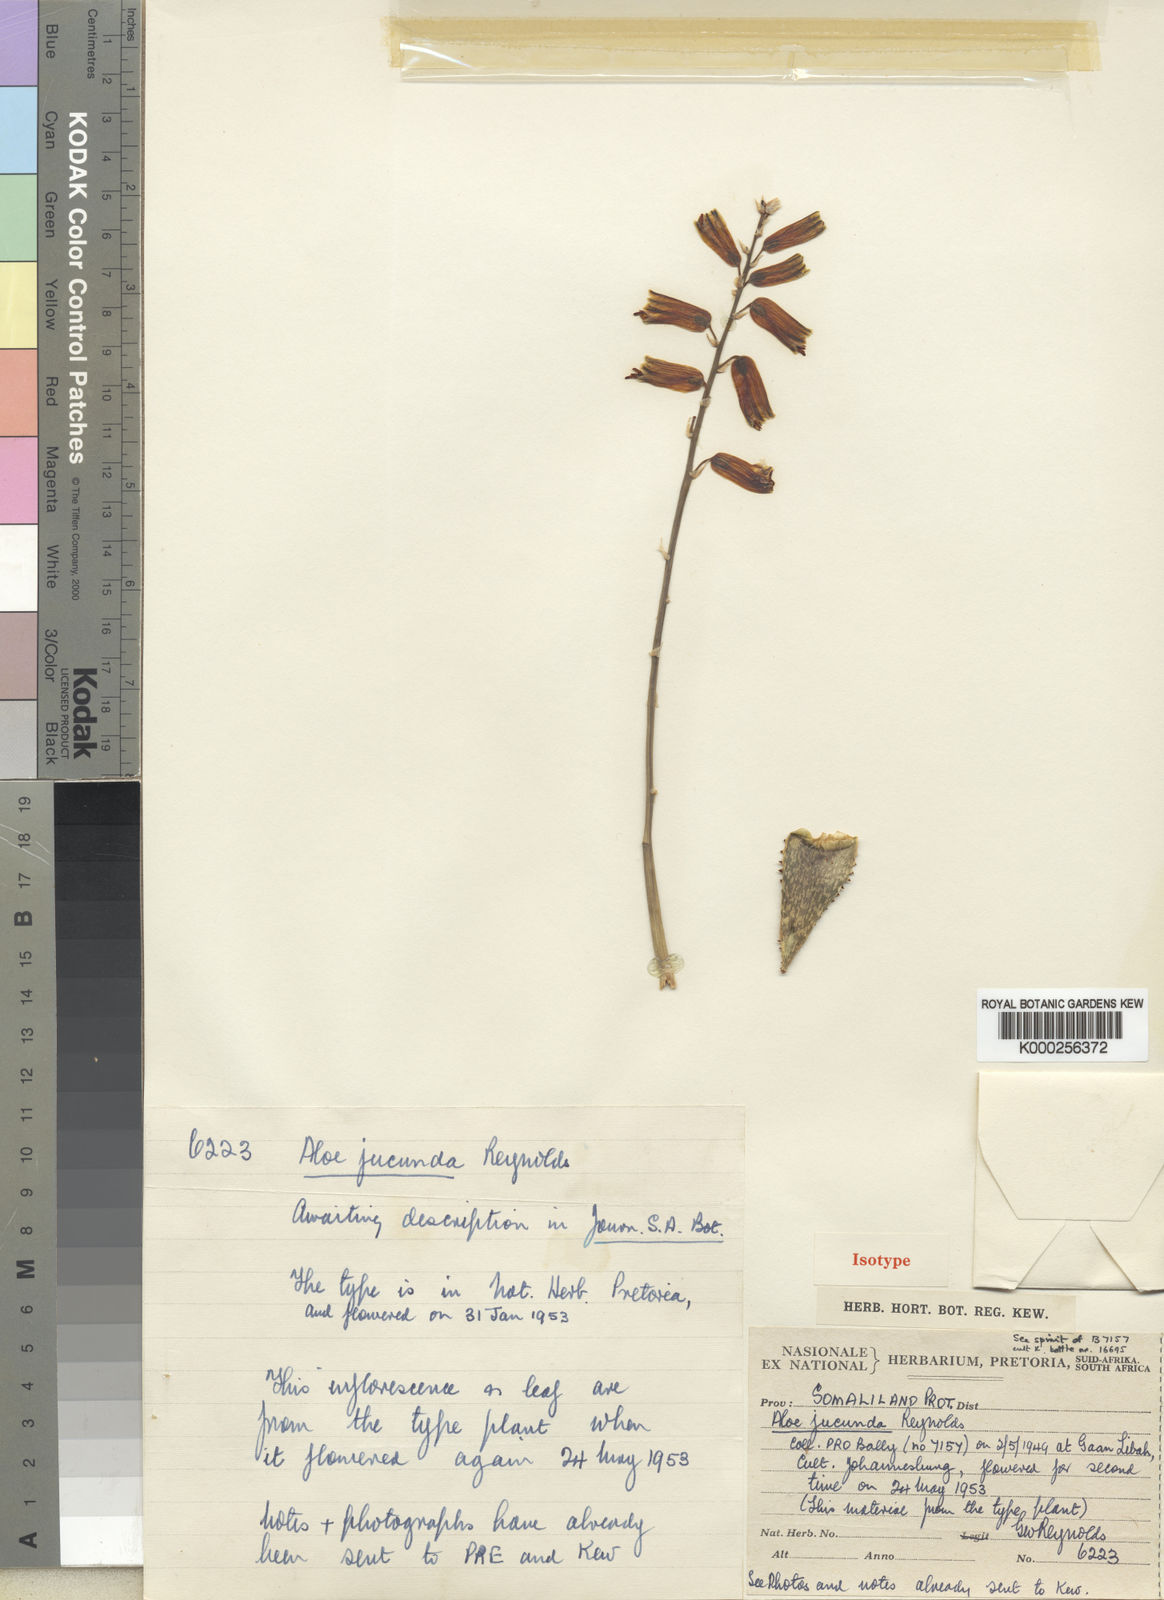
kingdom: Plantae
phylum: Tracheophyta
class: Liliopsida
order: Asparagales
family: Asphodelaceae
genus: Aloe
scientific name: Aloe jucunda
